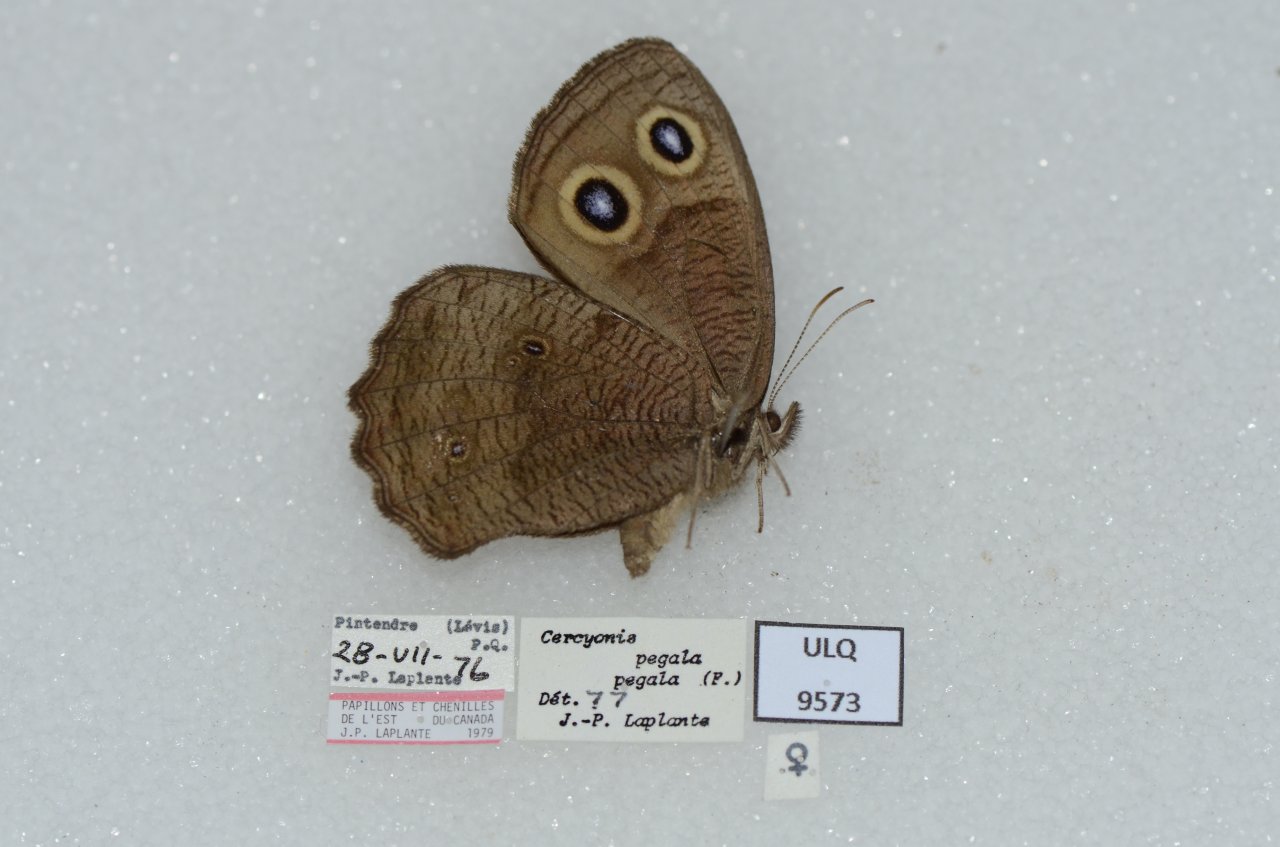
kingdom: Animalia
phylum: Arthropoda
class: Insecta
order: Lepidoptera
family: Nymphalidae
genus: Cercyonis
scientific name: Cercyonis pegala
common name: Common Wood-Nymph
